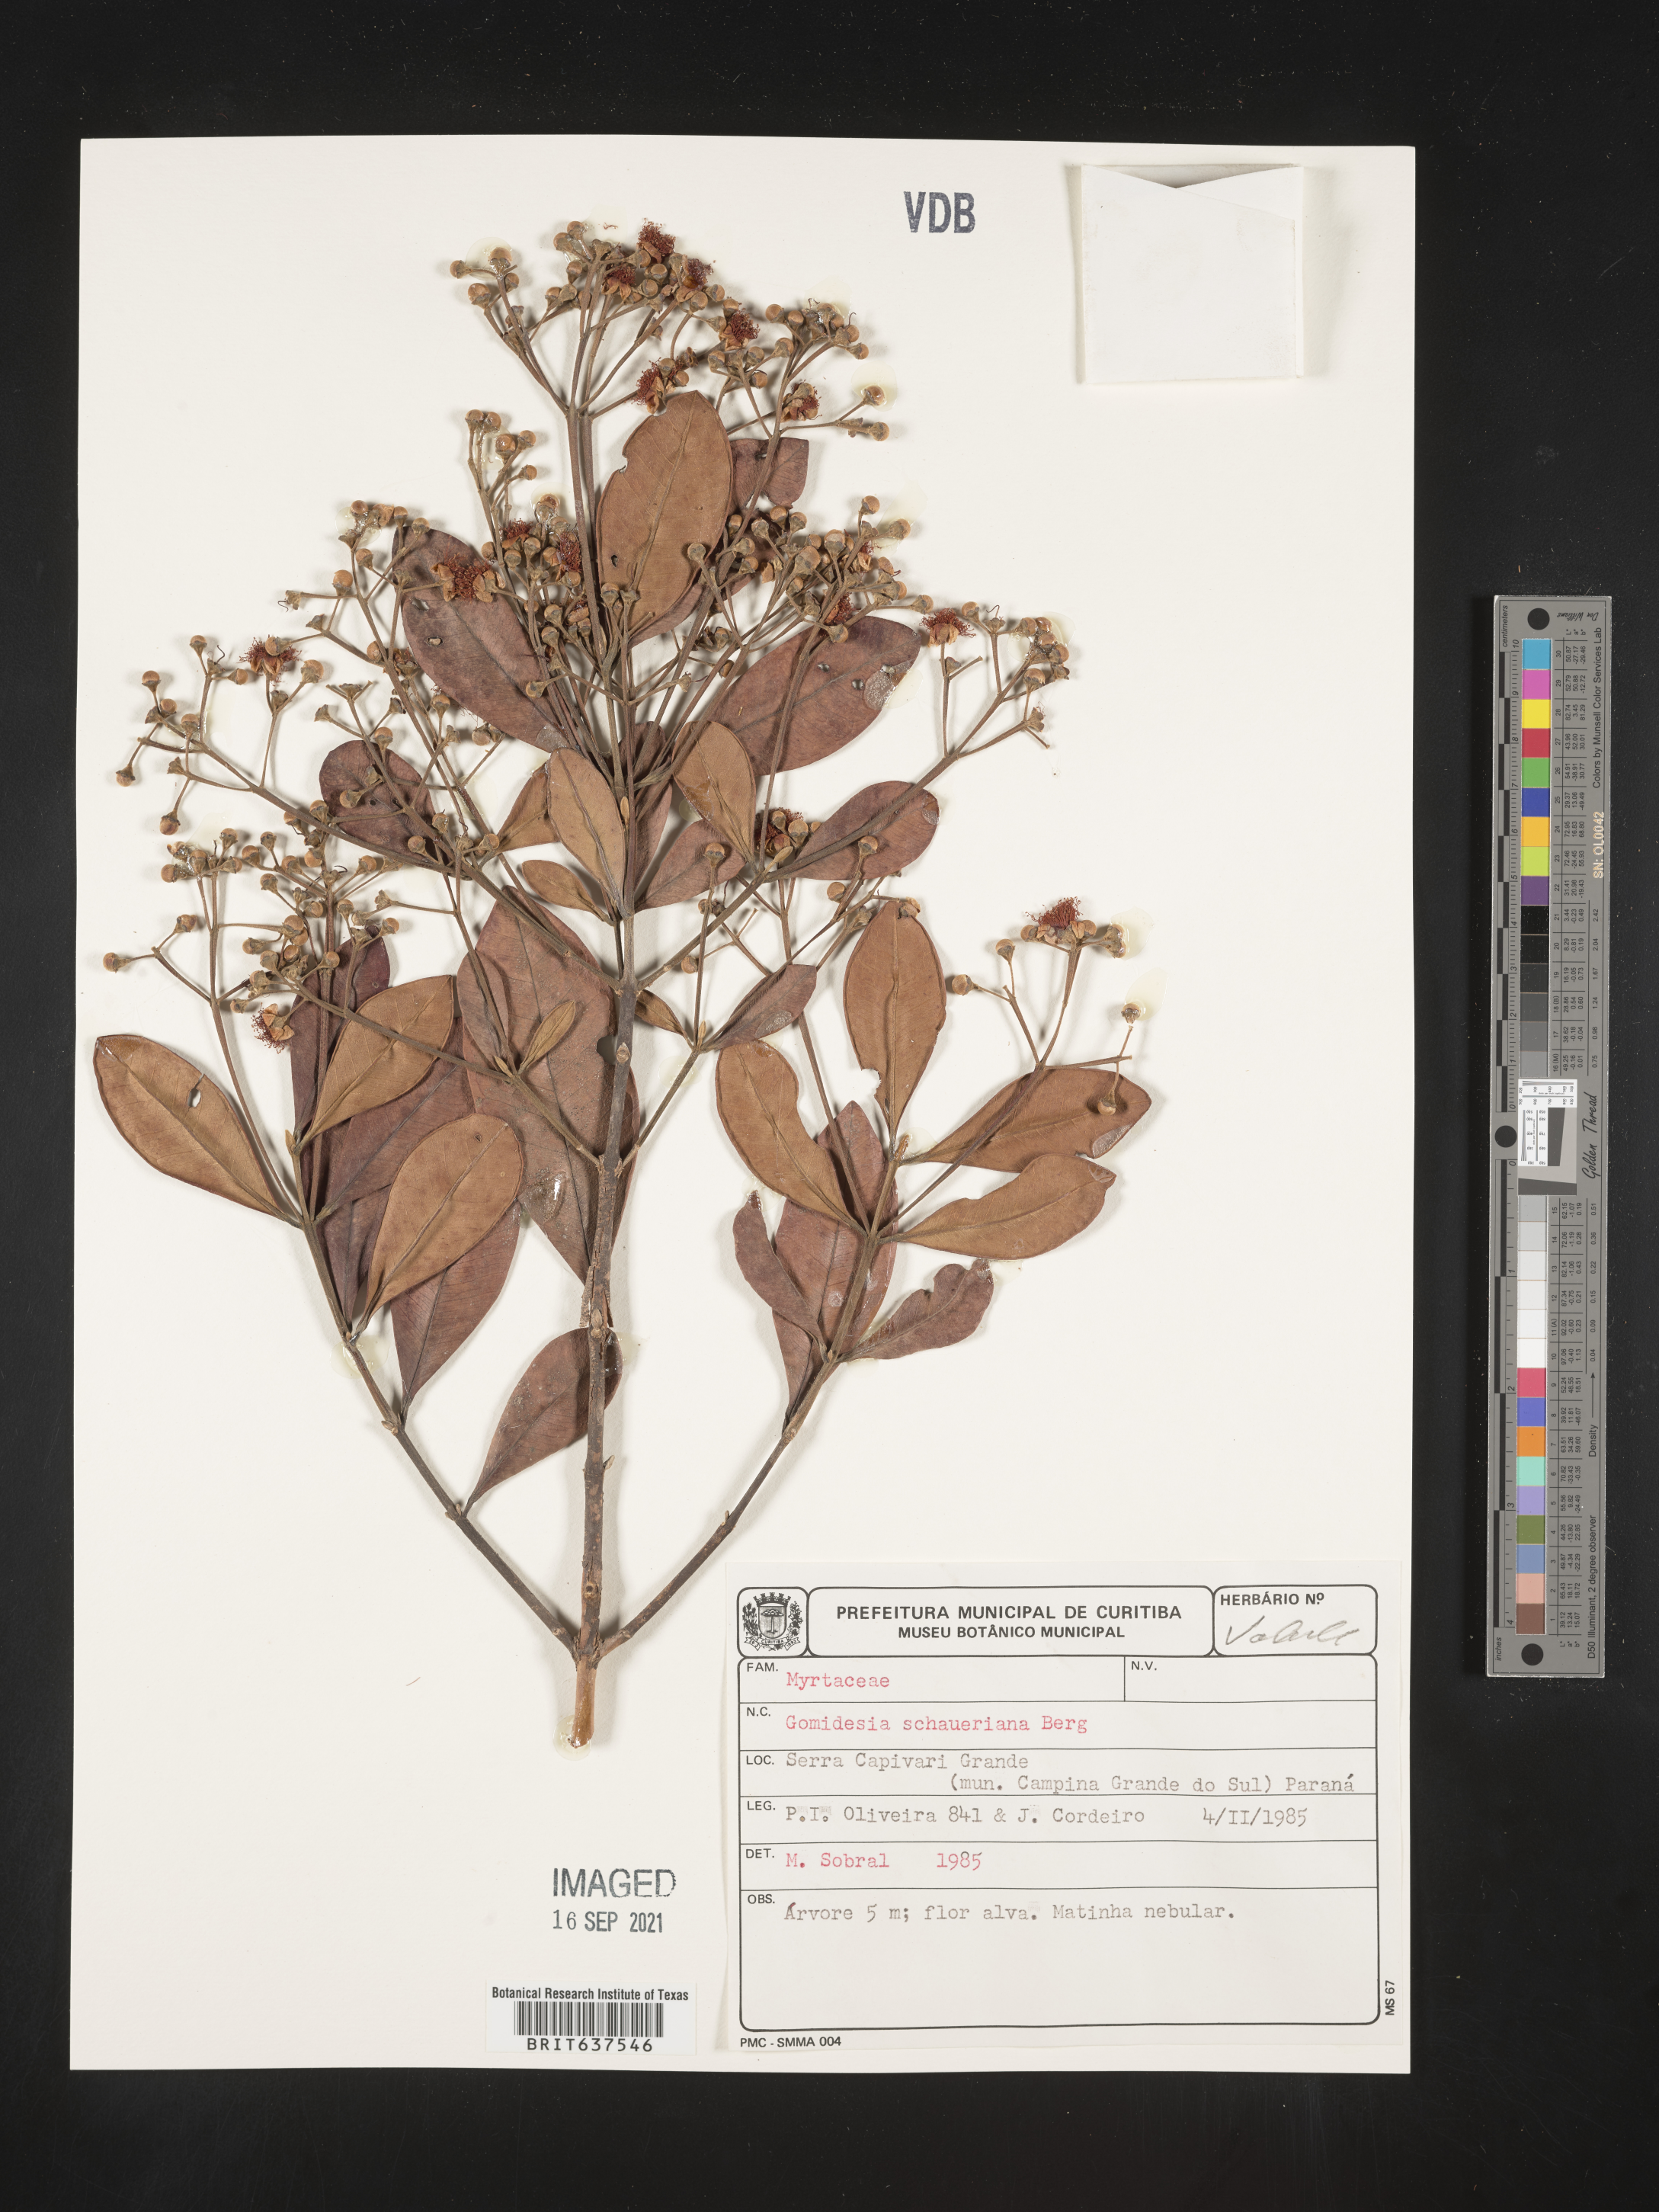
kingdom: Plantae
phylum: Tracheophyta
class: Magnoliopsida
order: Myrtales
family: Myrtaceae
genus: Myrcia
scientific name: Myrcia
